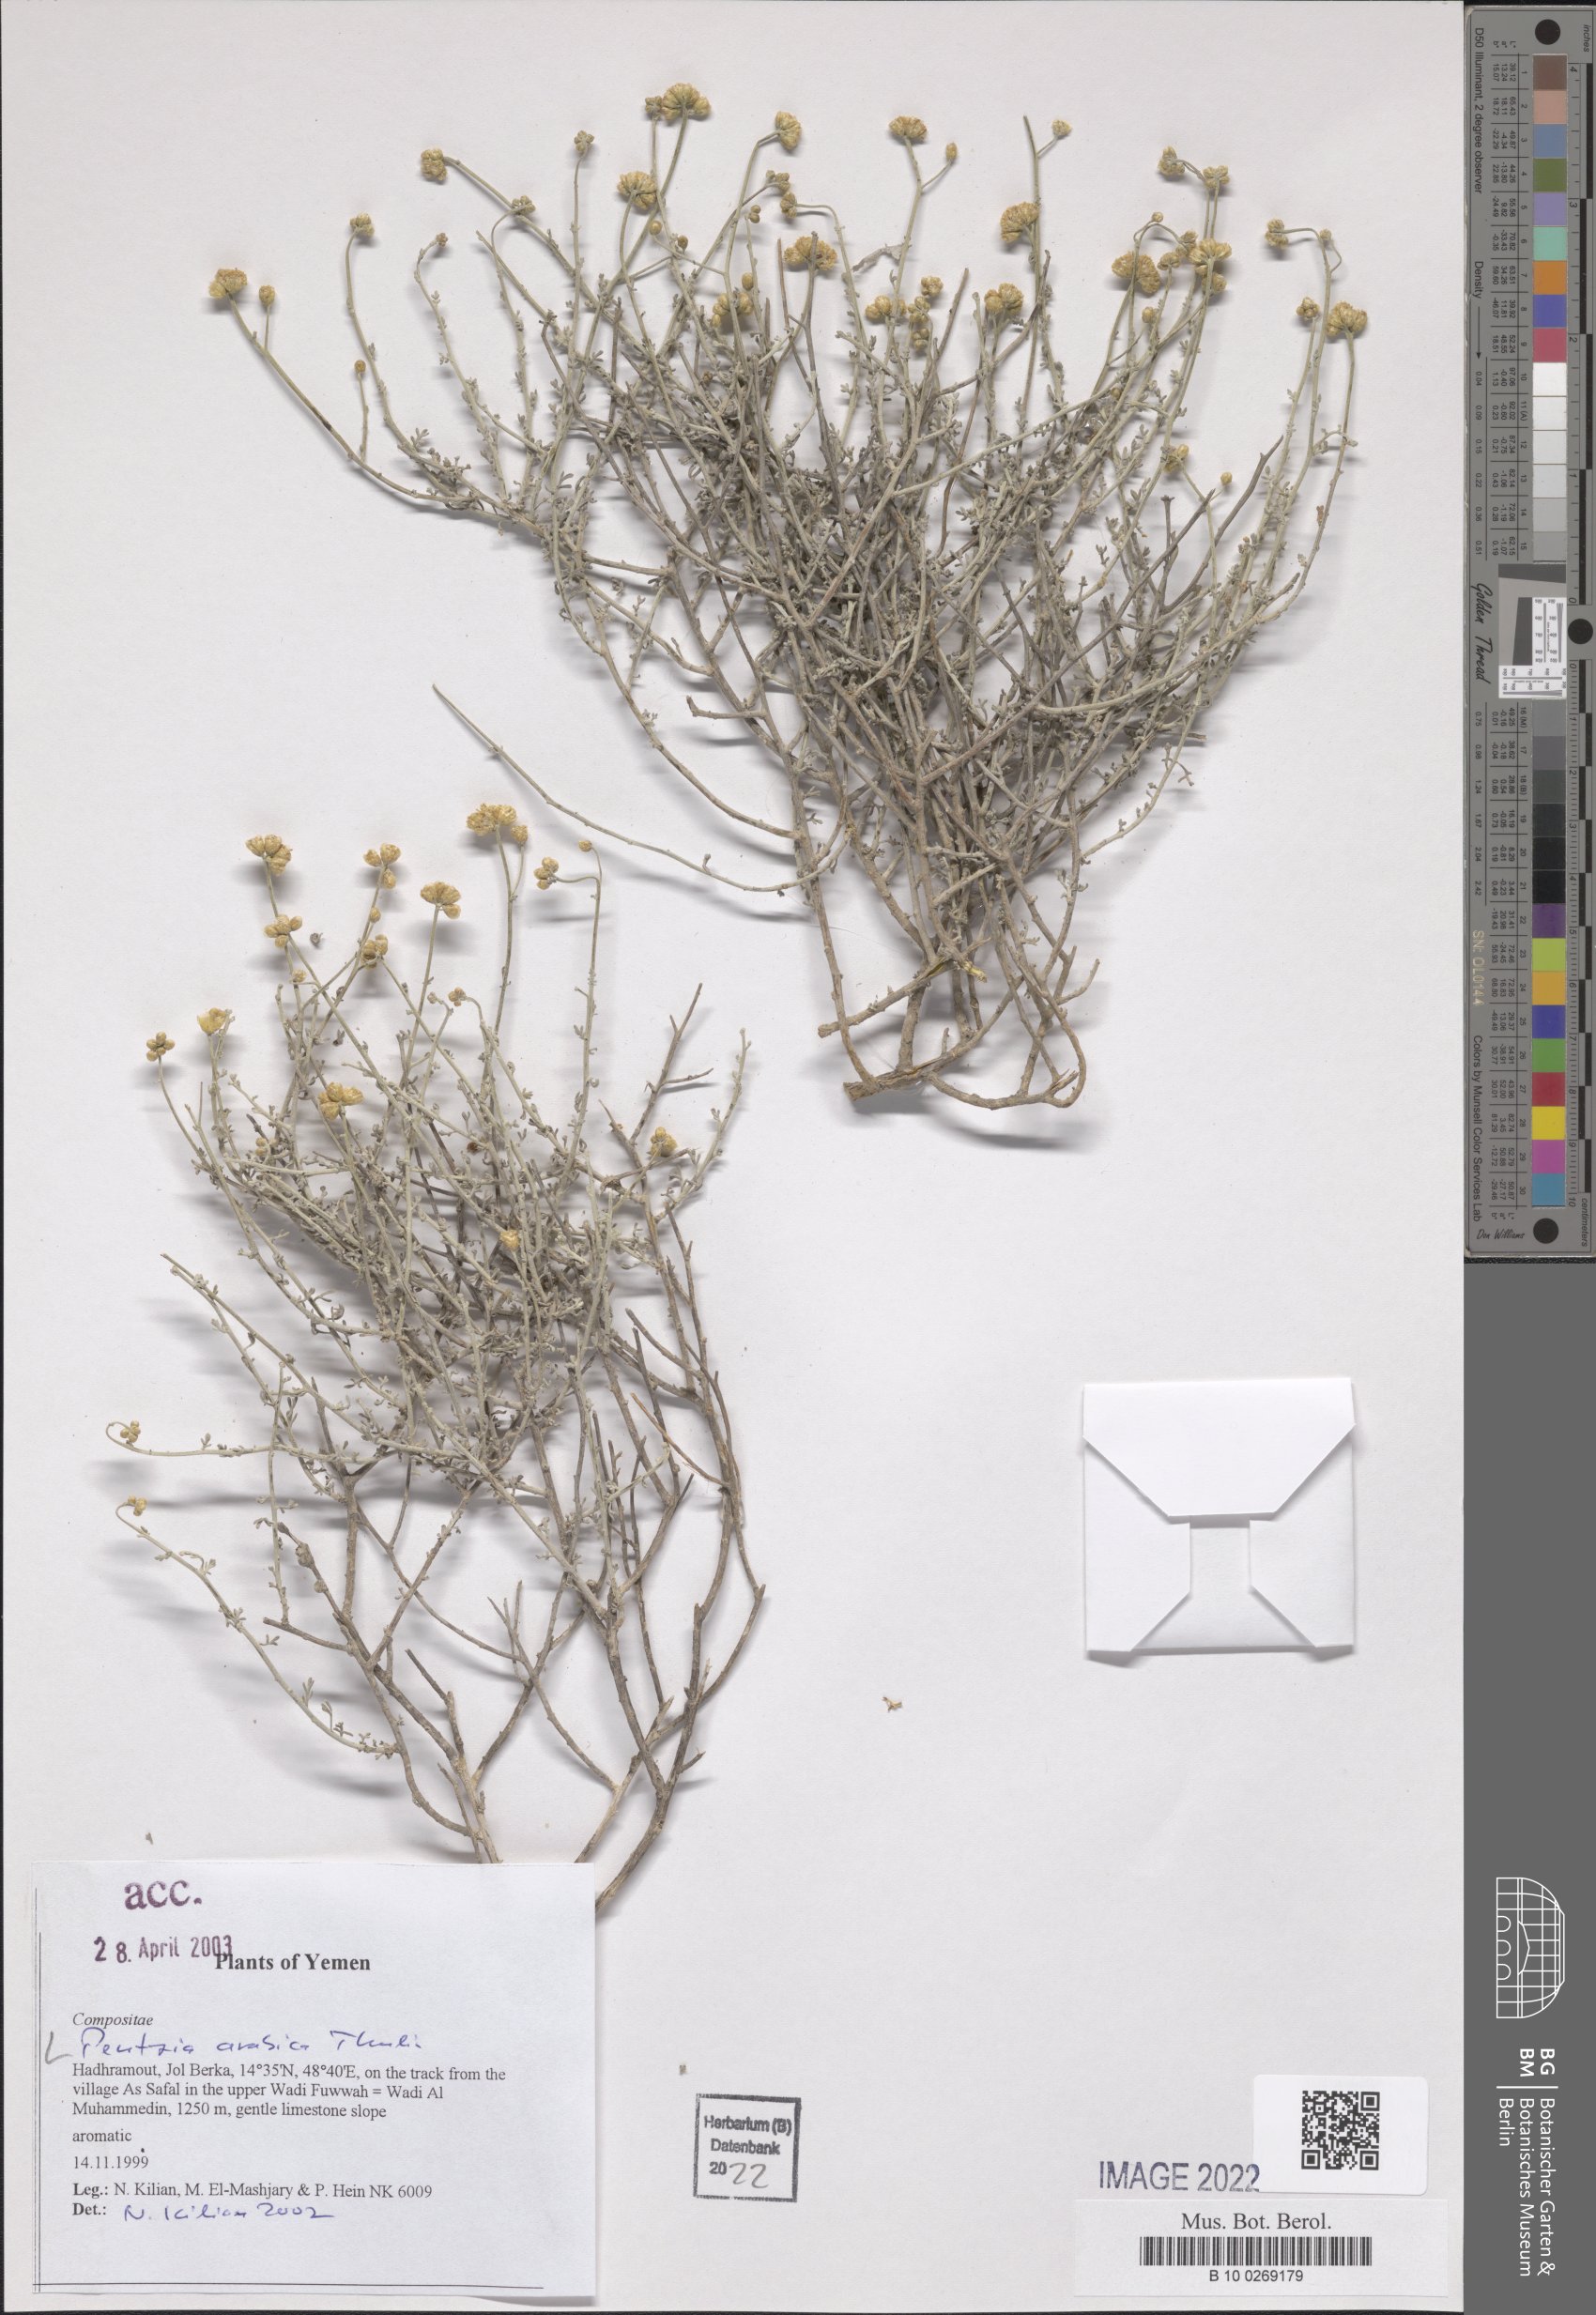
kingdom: Plantae
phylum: Tracheophyta
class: Magnoliopsida
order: Asterales
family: Asteraceae
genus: Pentzia
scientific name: Pentzia arabica
